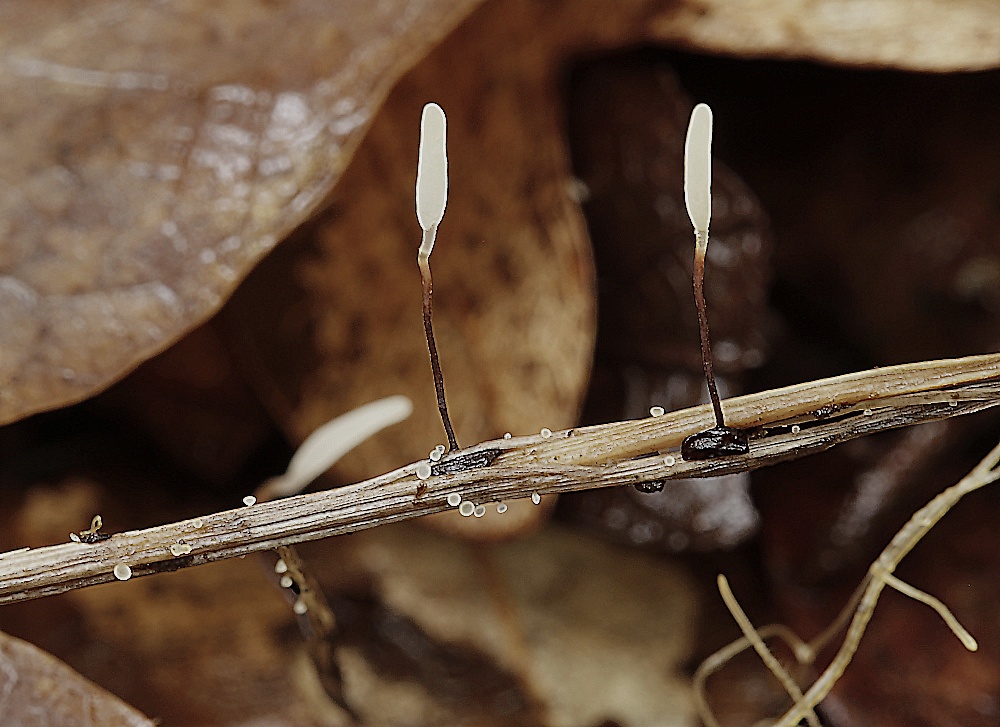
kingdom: Fungi
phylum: Ascomycota
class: Leotiomycetes
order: Helotiales
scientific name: Helotiales
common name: stilkskiveordenen
